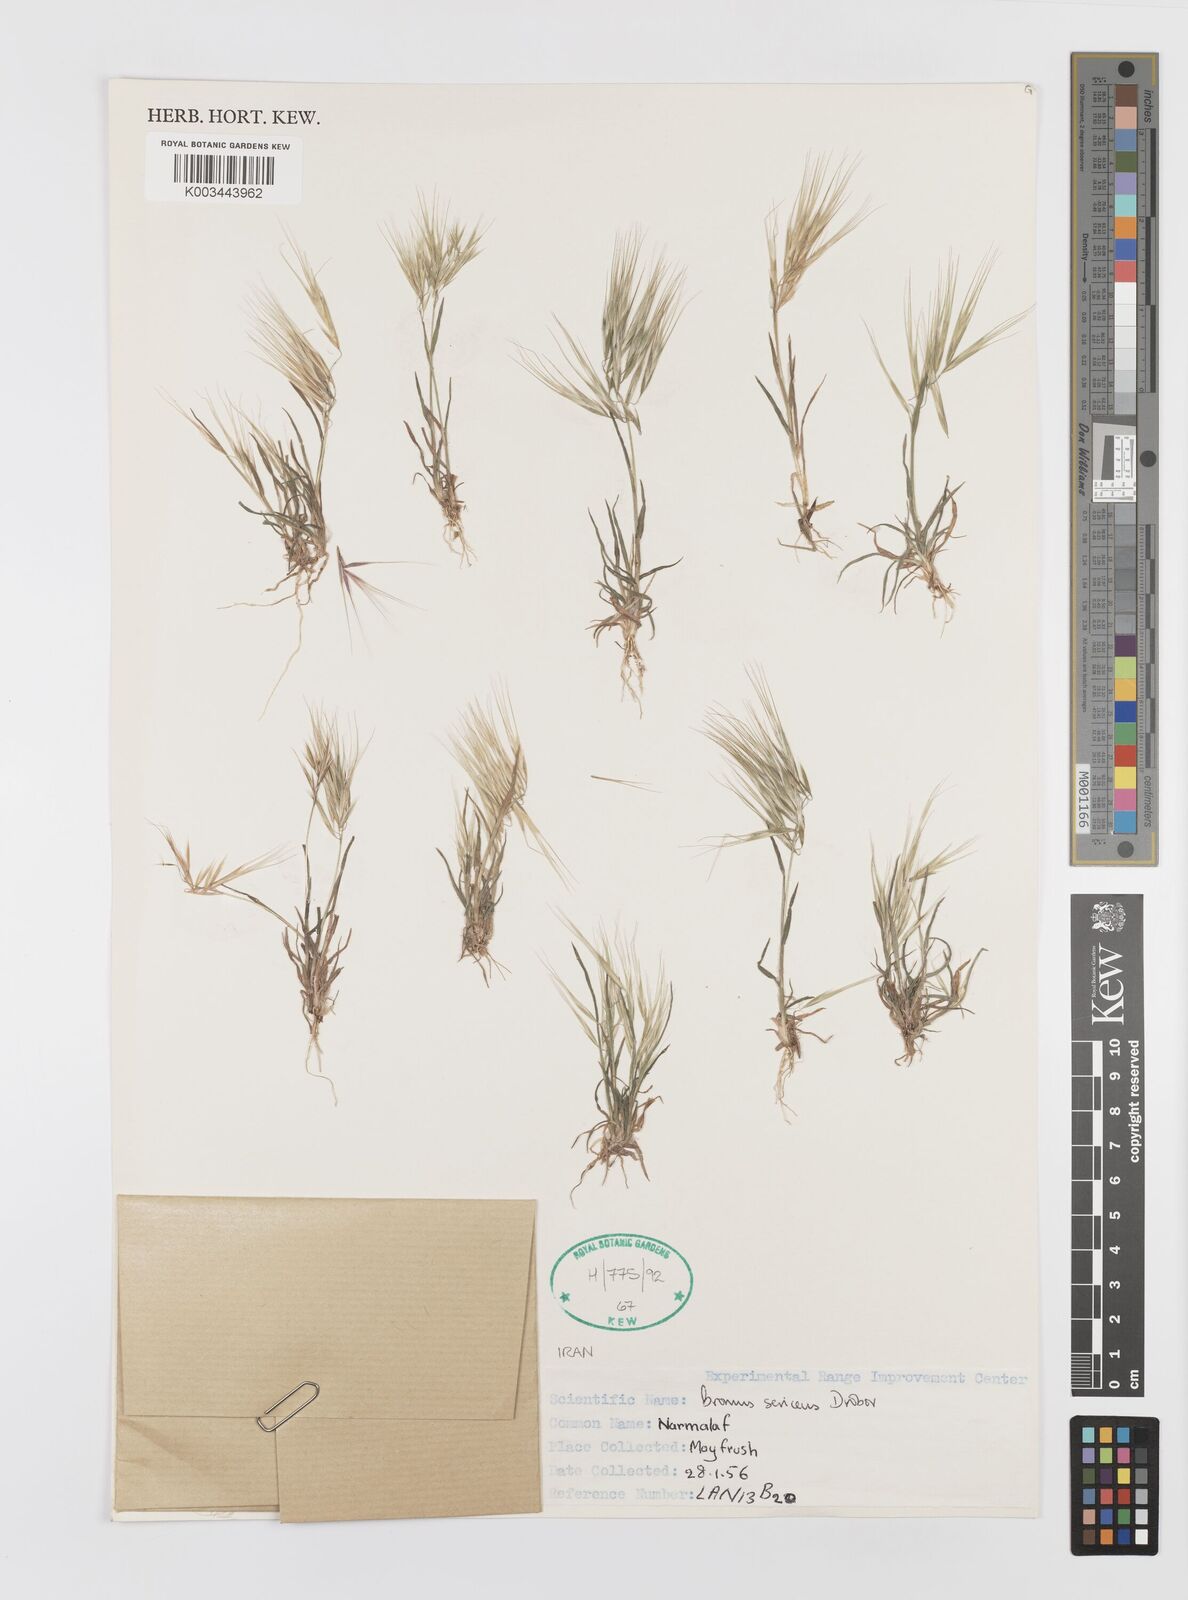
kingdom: Plantae
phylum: Tracheophyta
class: Liliopsida
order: Poales
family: Poaceae
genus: Bromus
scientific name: Bromus moeszii
